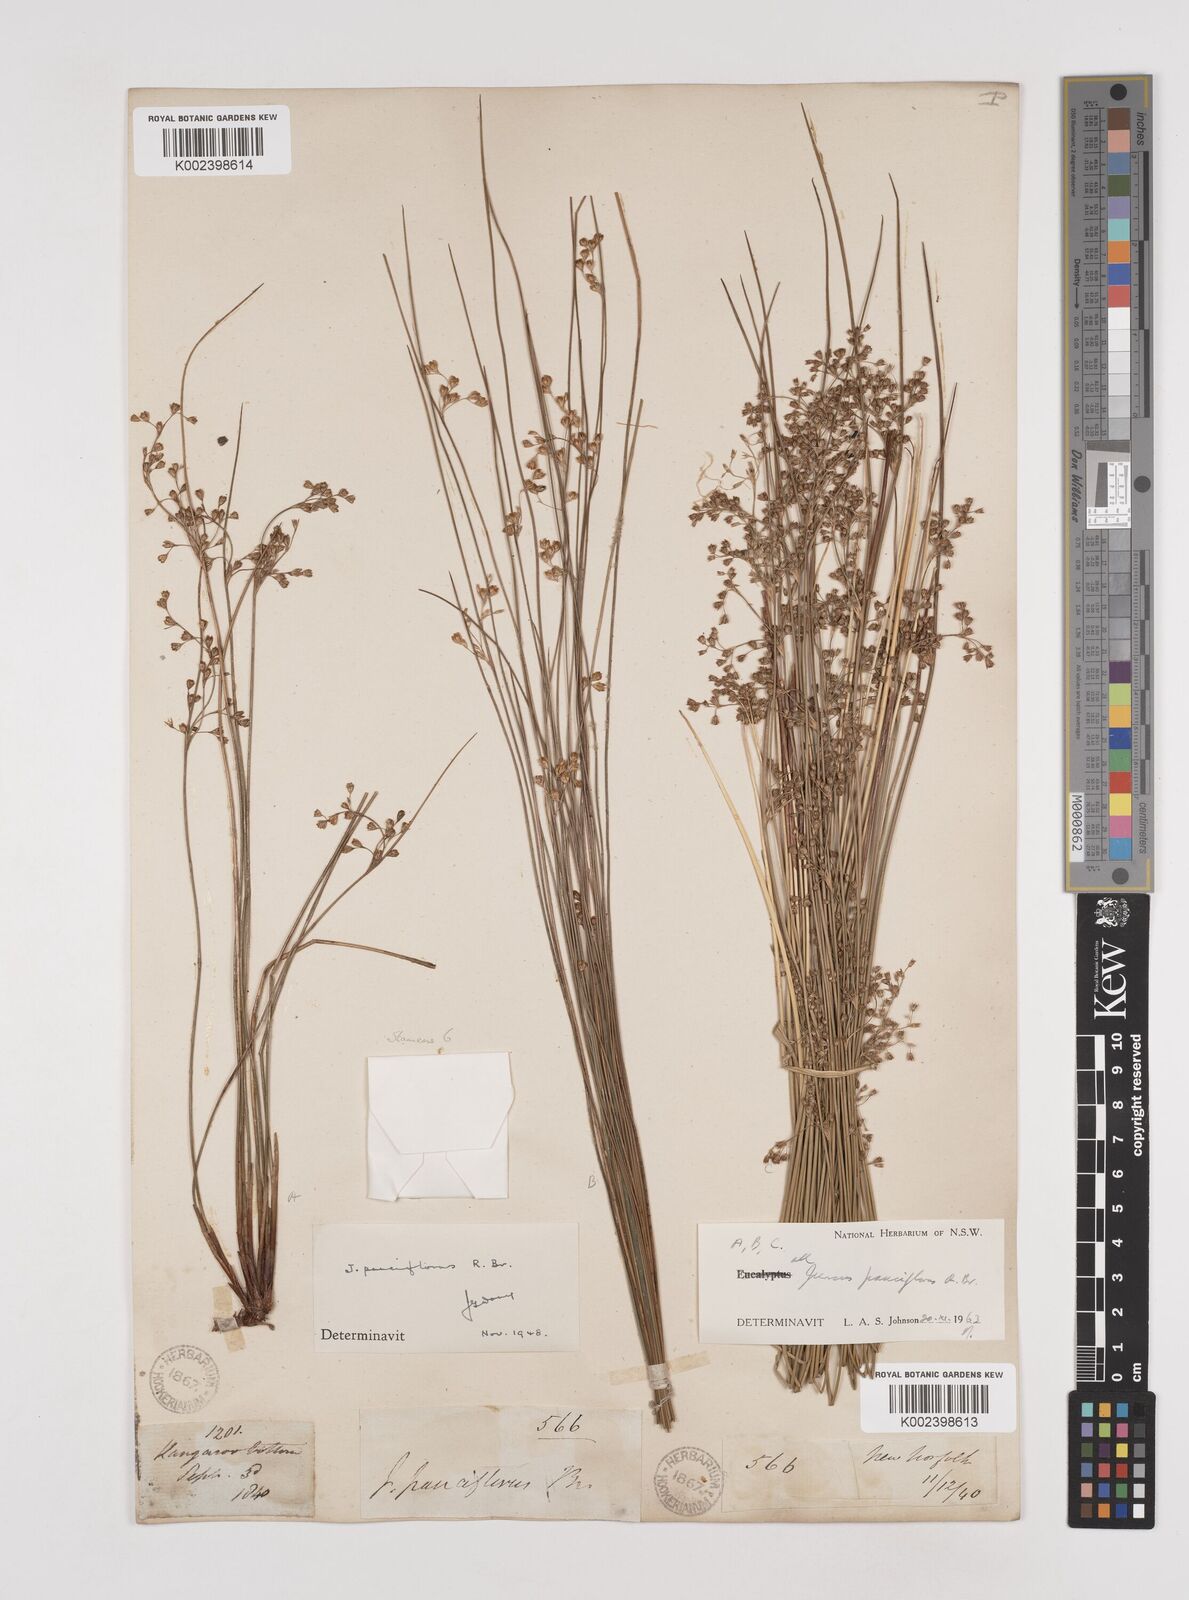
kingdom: Plantae
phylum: Tracheophyta
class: Liliopsida
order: Poales
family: Juncaceae
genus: Juncus
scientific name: Juncus pauciflorus
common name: Loose-flowered rush
